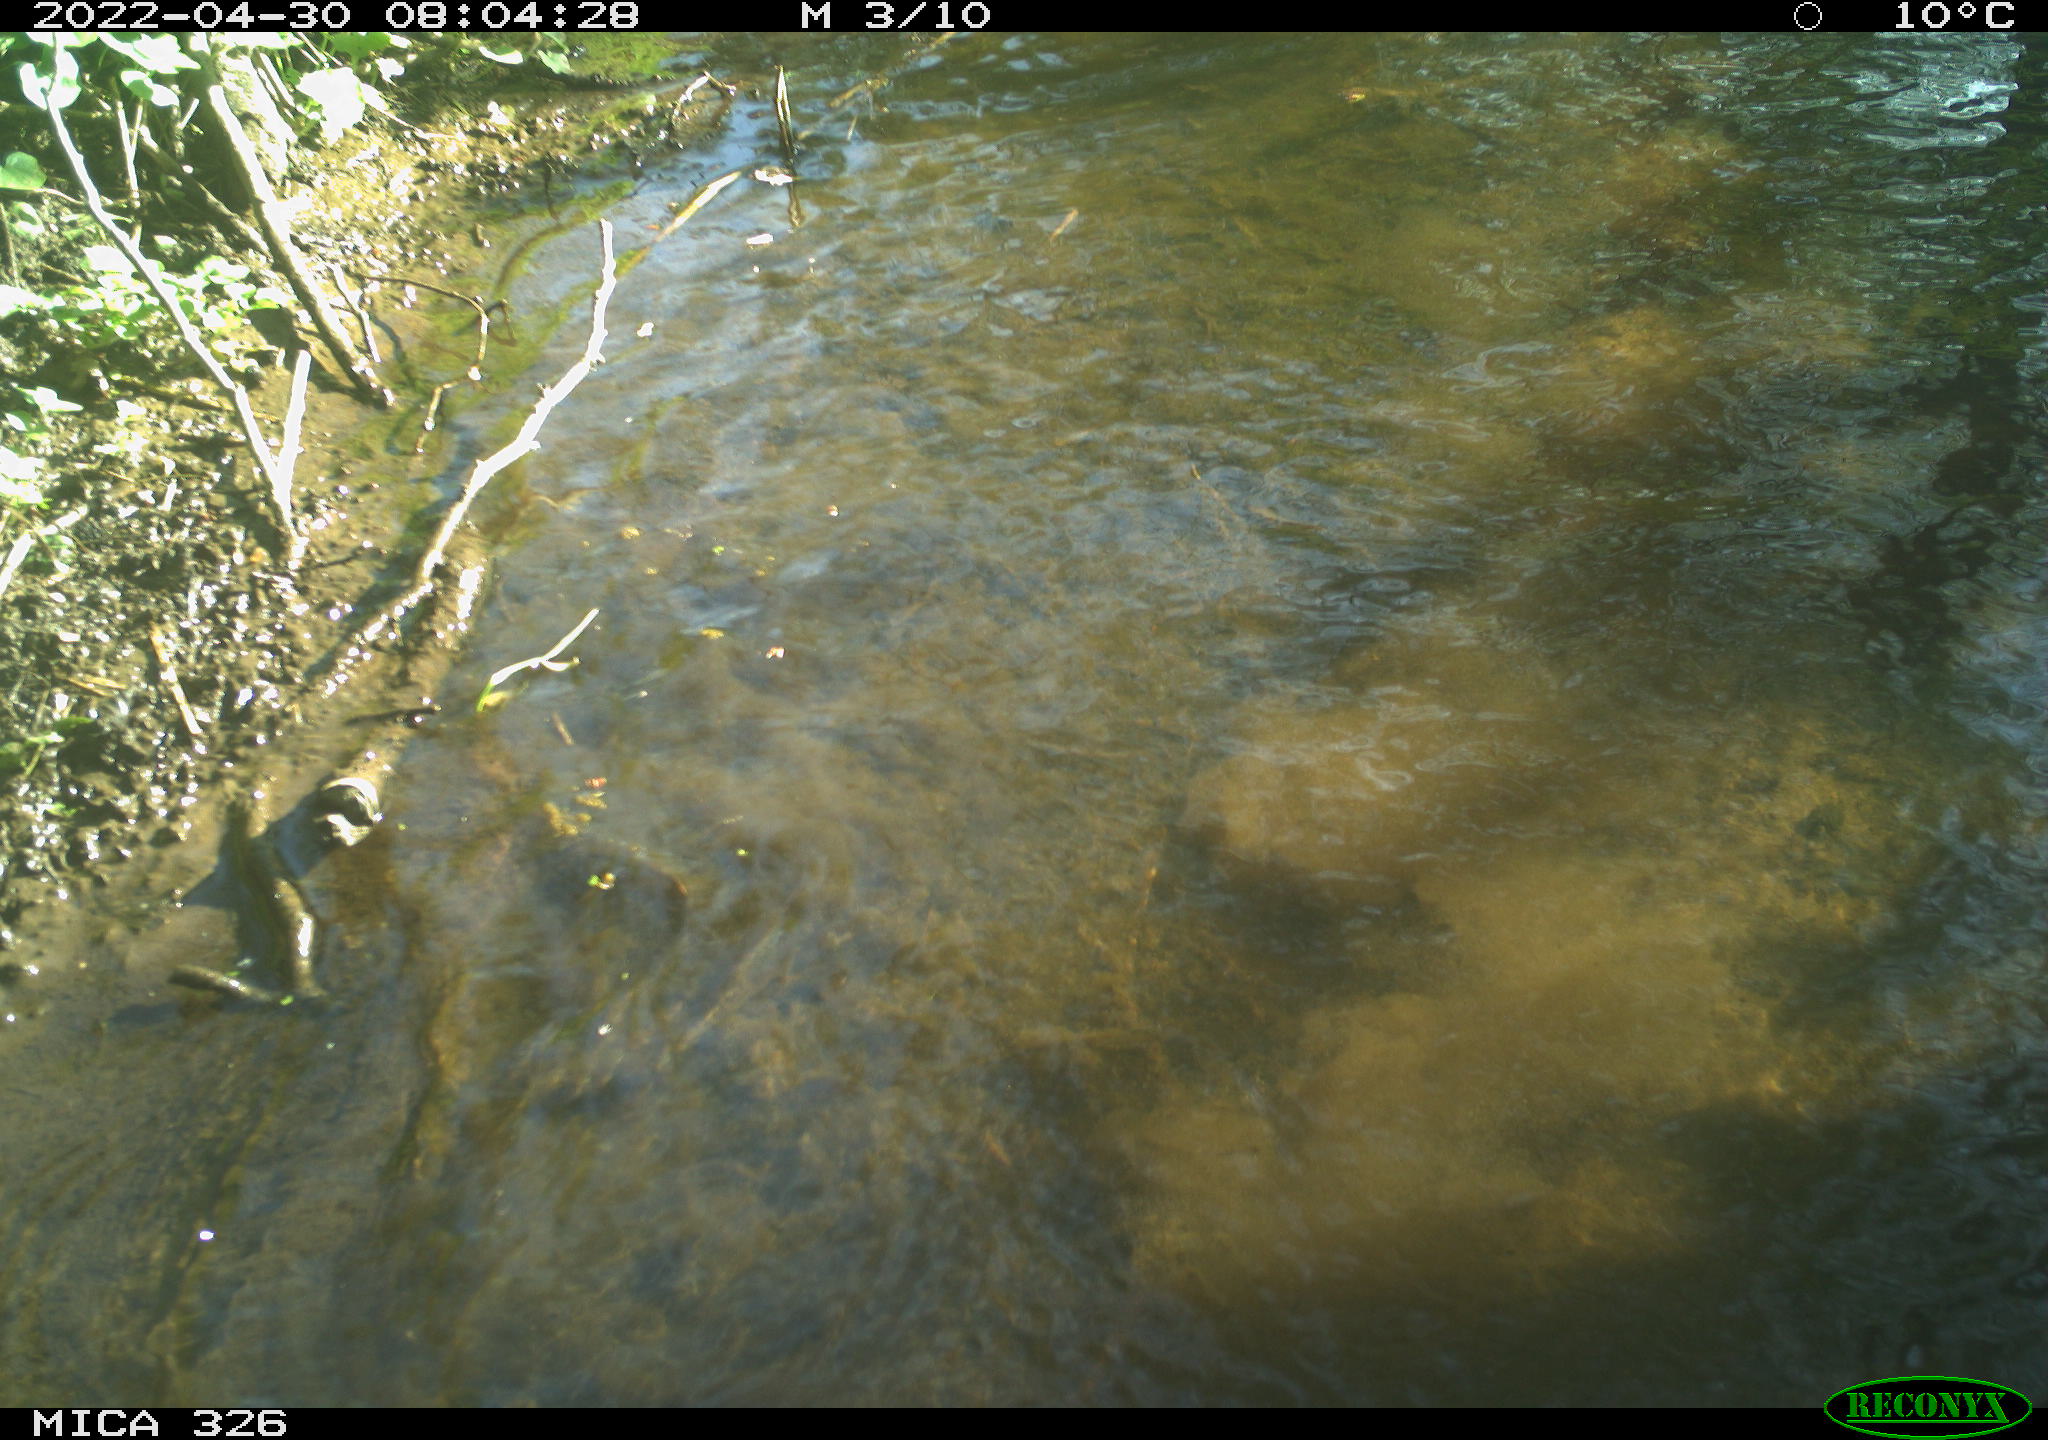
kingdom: Animalia
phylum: Chordata
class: Mammalia
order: Rodentia
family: Cricetidae
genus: Ondatra
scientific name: Ondatra zibethicus
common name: Muskrat
